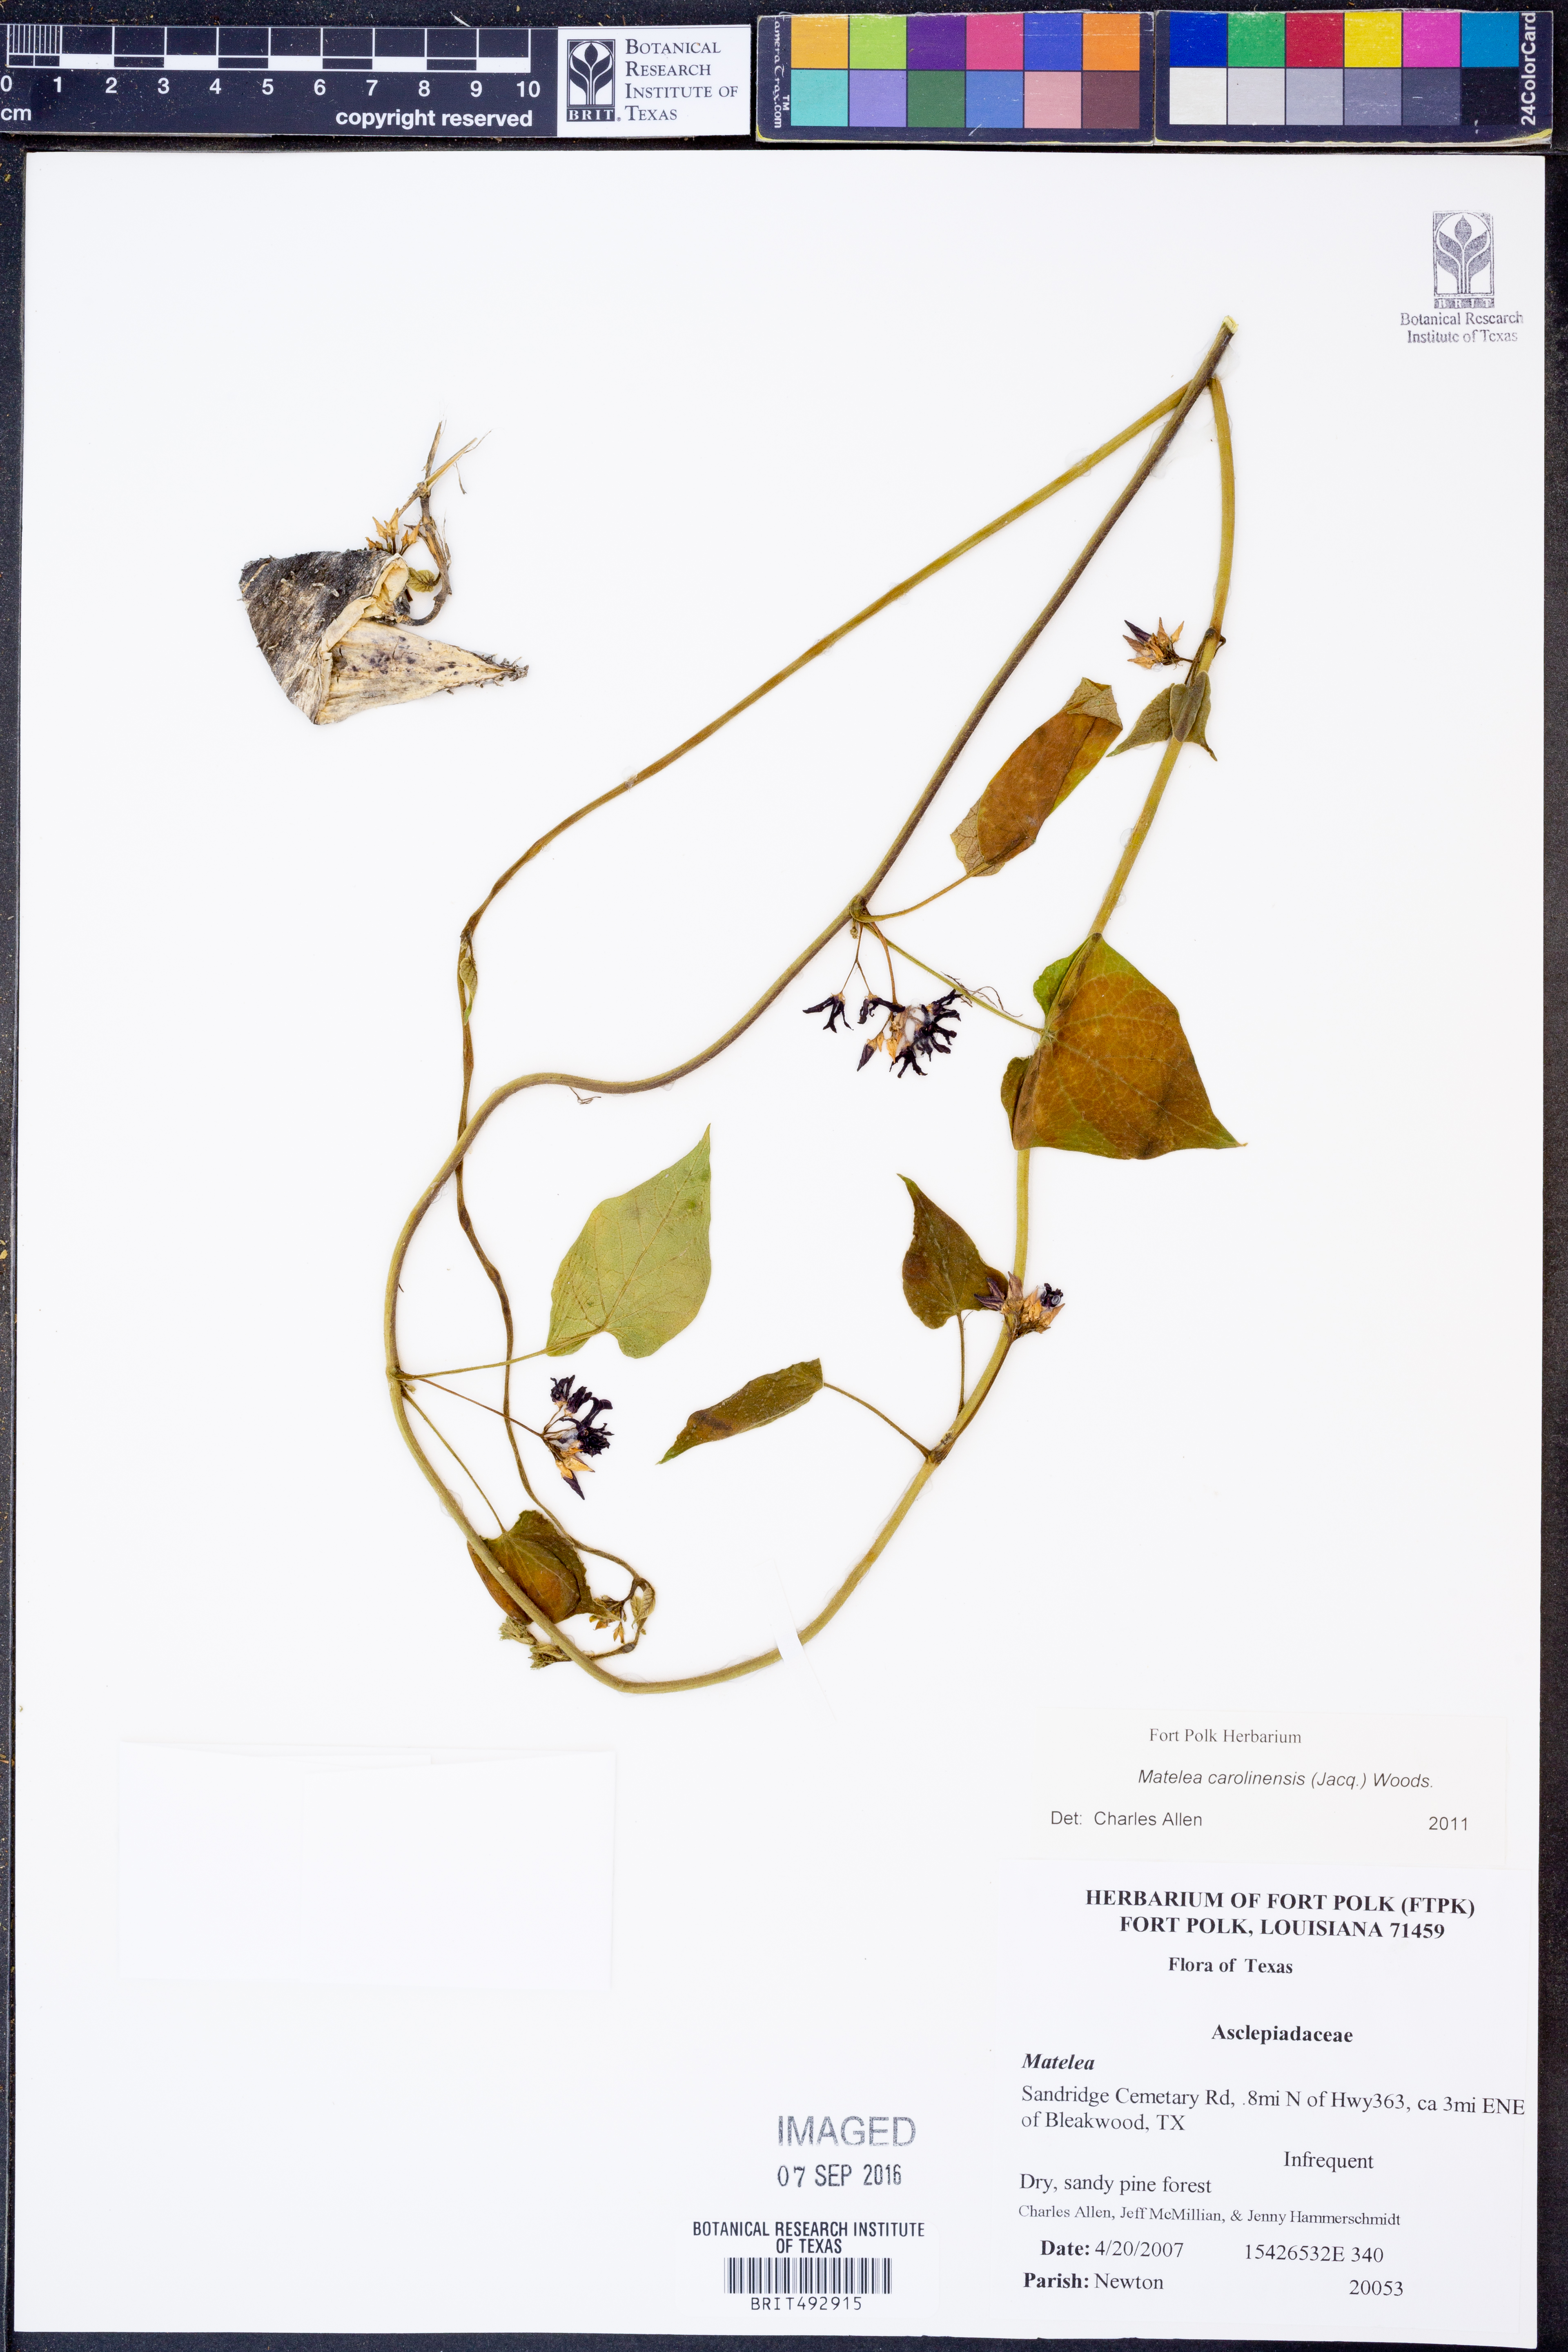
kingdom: Plantae
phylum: Tracheophyta
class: Magnoliopsida
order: Gentianales
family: Apocynaceae
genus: Matelea
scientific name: Matelea decipiens
